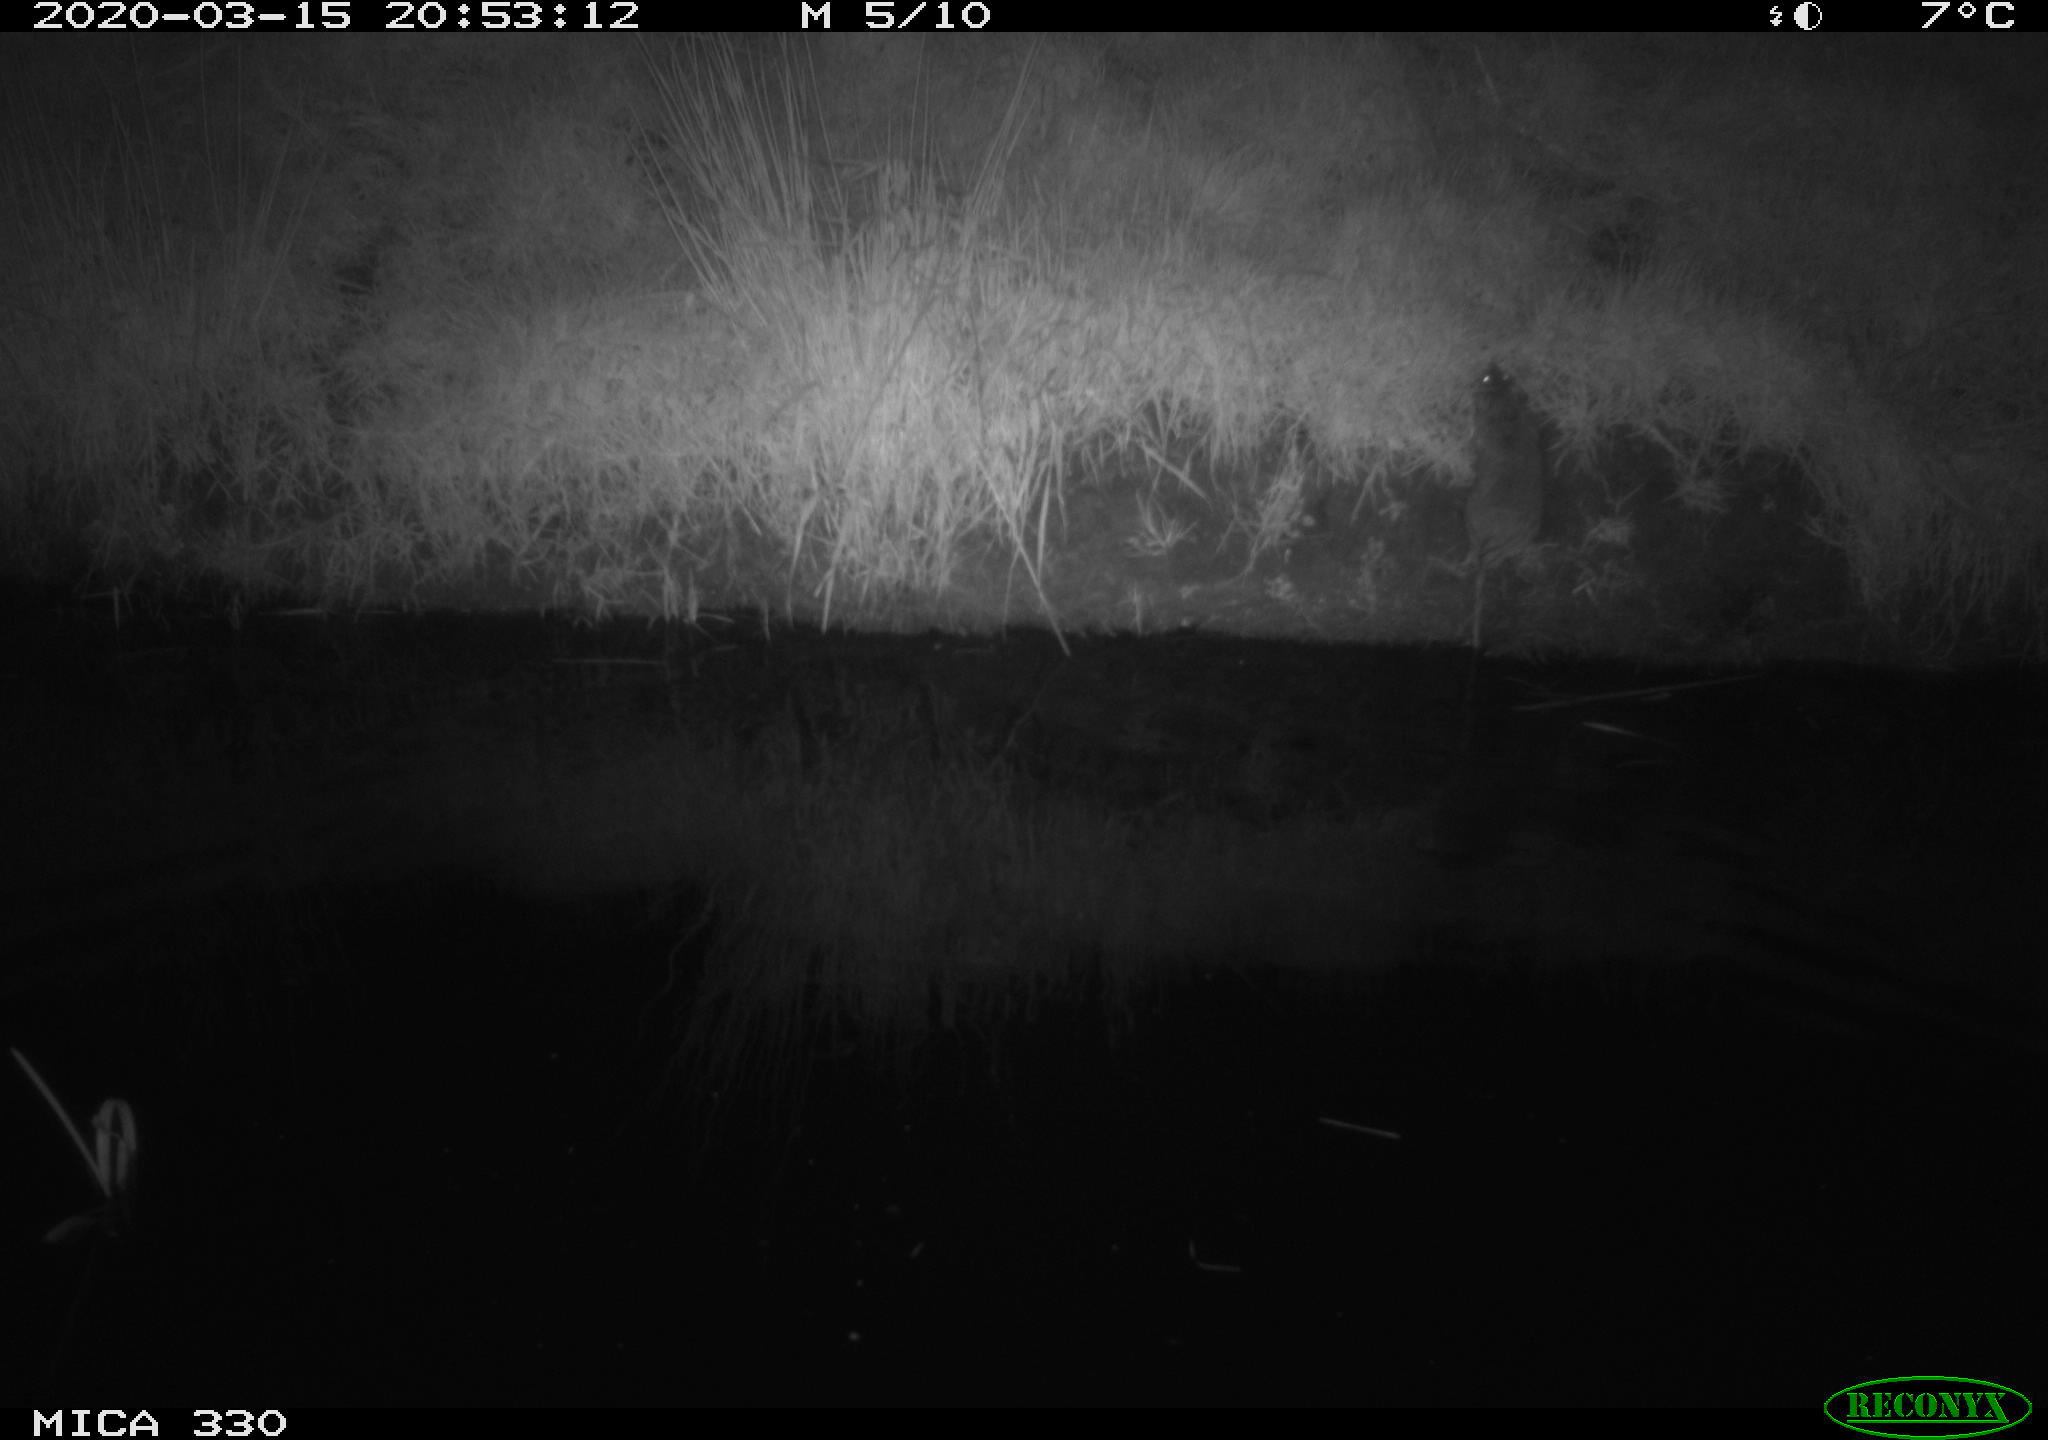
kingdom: Animalia
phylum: Chordata
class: Mammalia
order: Rodentia
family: Muridae
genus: Rattus
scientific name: Rattus norvegicus
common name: Brown rat
